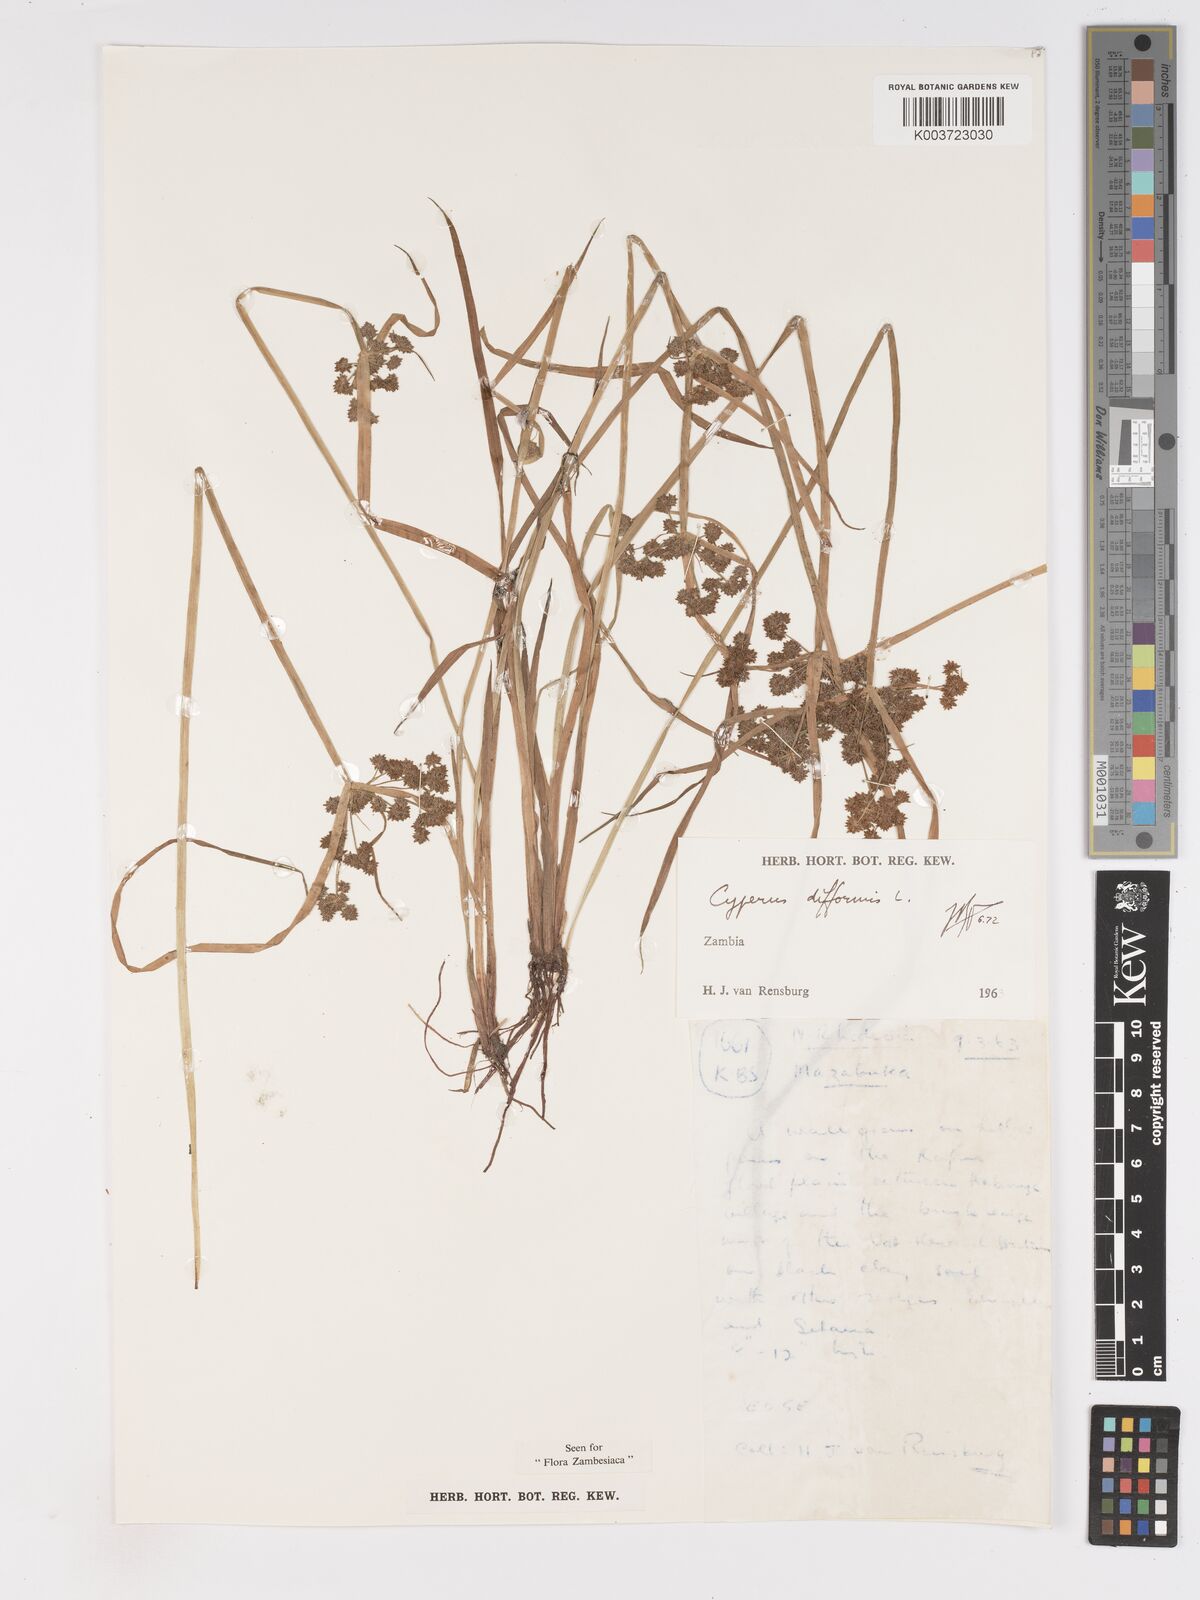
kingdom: Plantae
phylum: Tracheophyta
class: Liliopsida
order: Poales
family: Cyperaceae
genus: Cyperus
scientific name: Cyperus difformis
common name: Variable flatsedge
